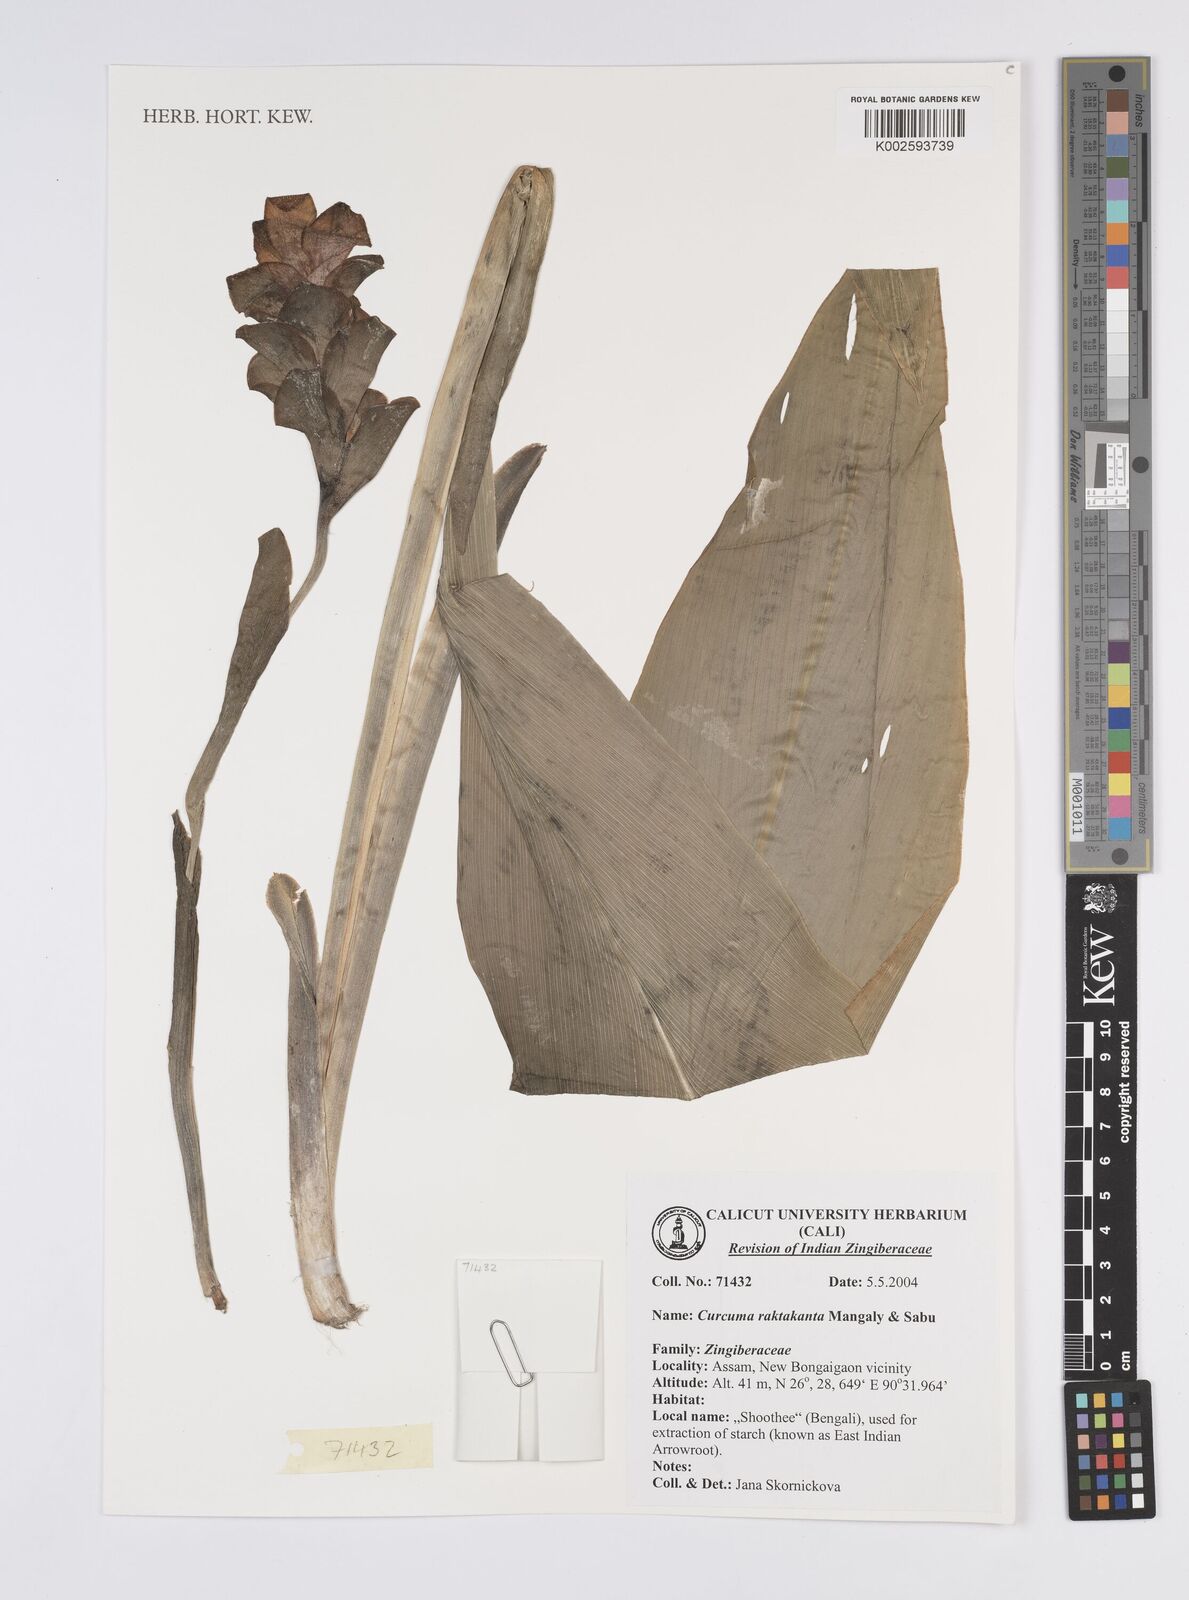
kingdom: Plantae
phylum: Tracheophyta
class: Liliopsida
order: Zingiberales
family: Zingiberaceae
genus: Curcuma
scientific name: Curcuma zedoaria
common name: Zedoary
